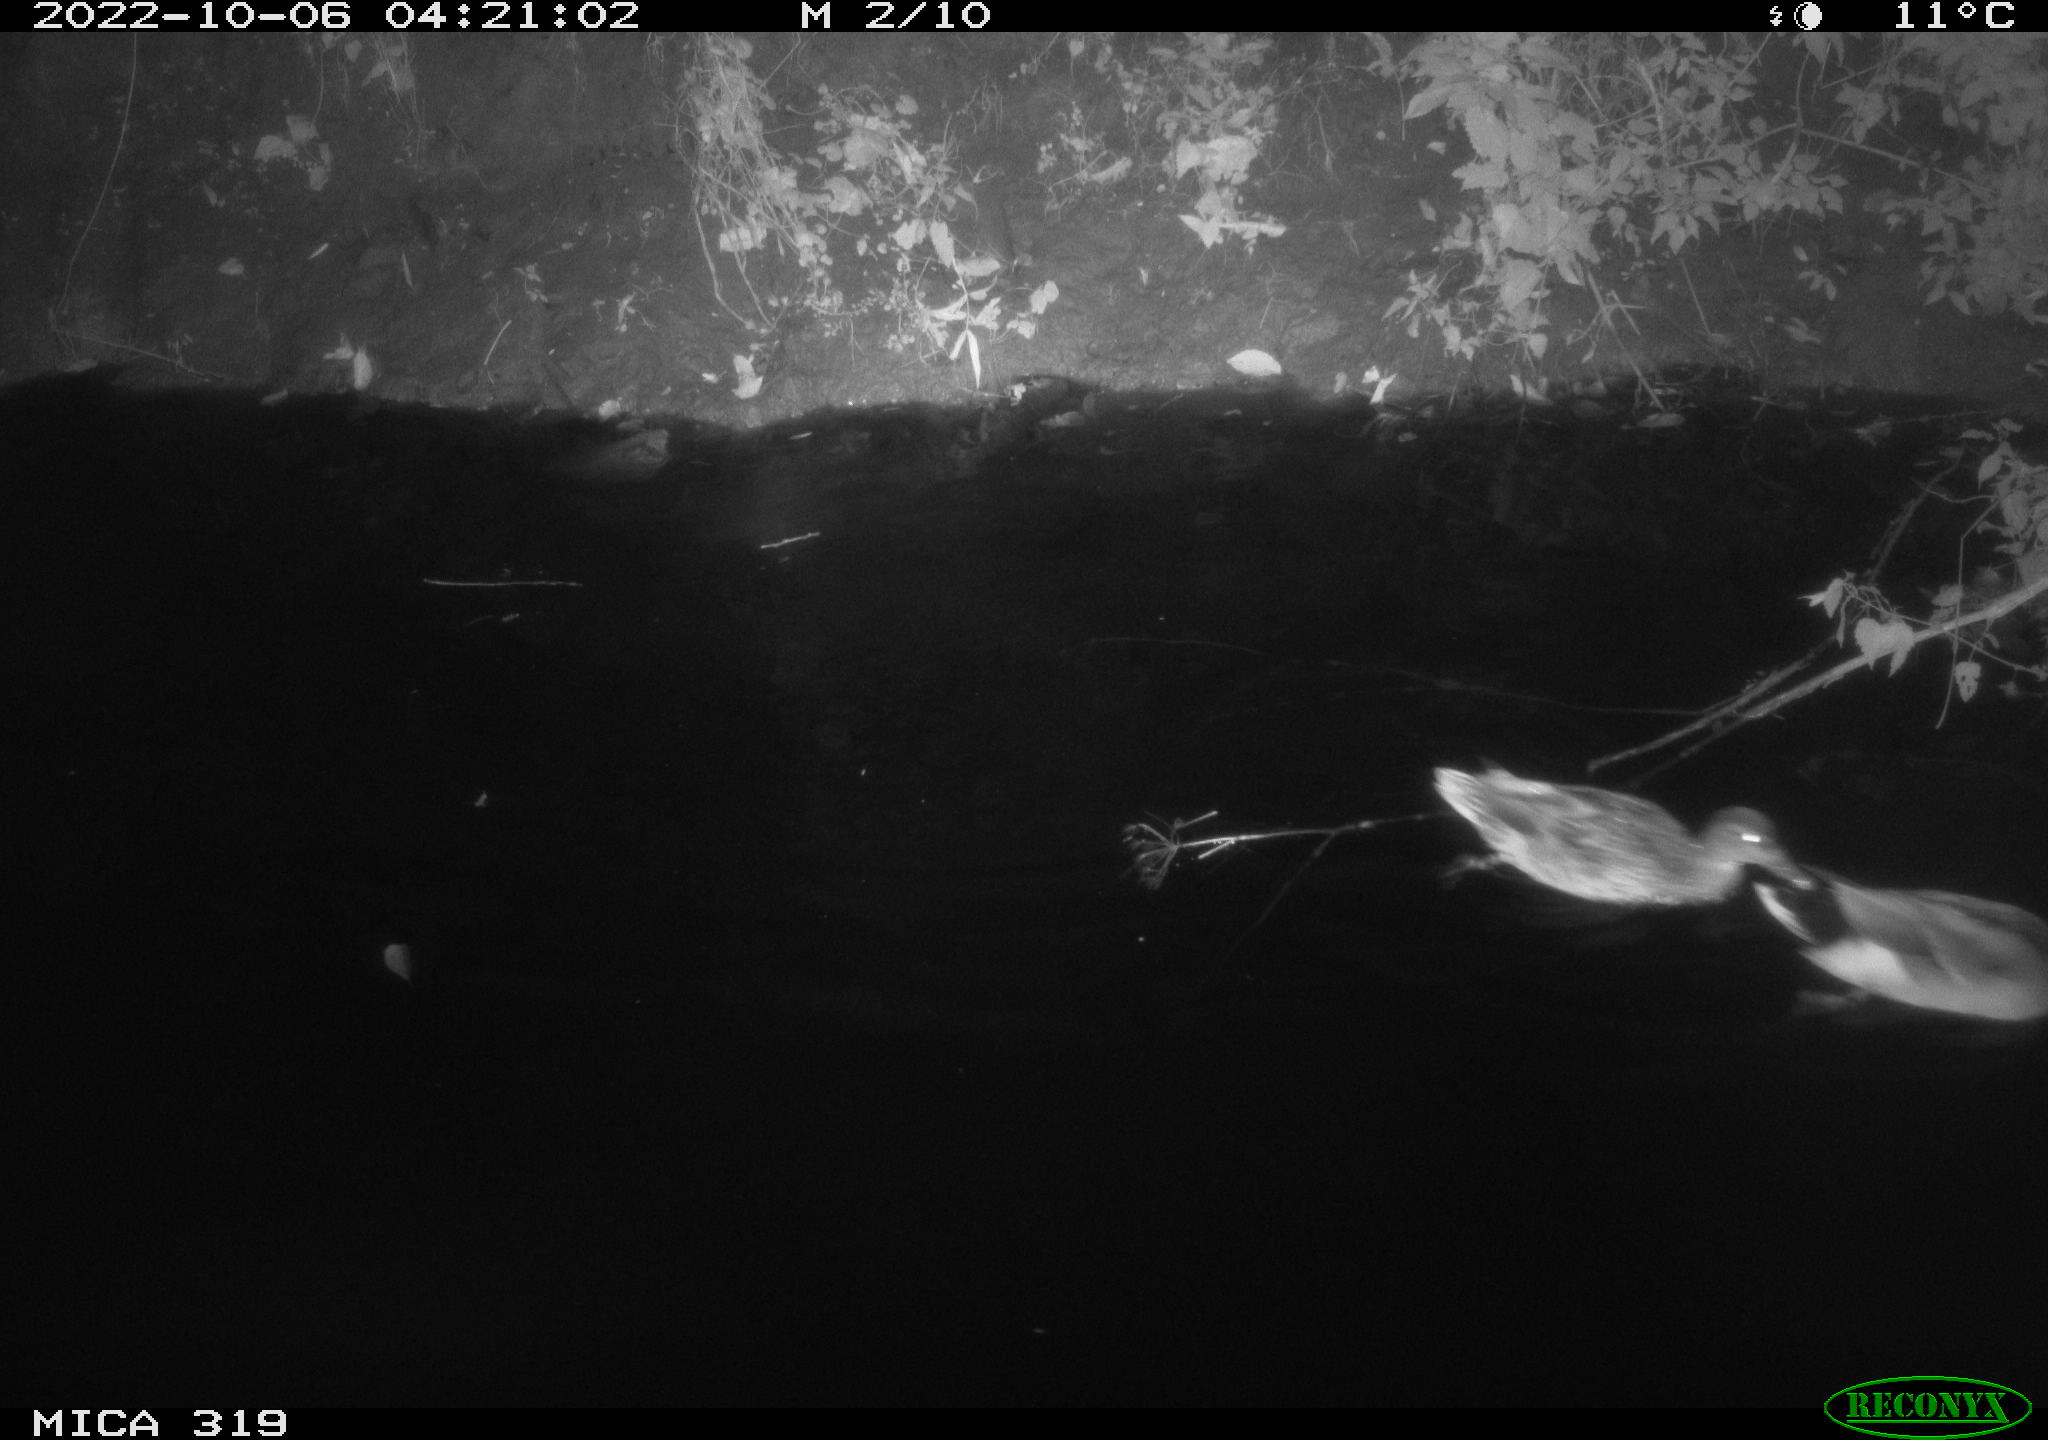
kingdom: Animalia
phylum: Chordata
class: Aves
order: Anseriformes
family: Anatidae
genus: Anas
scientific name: Anas
